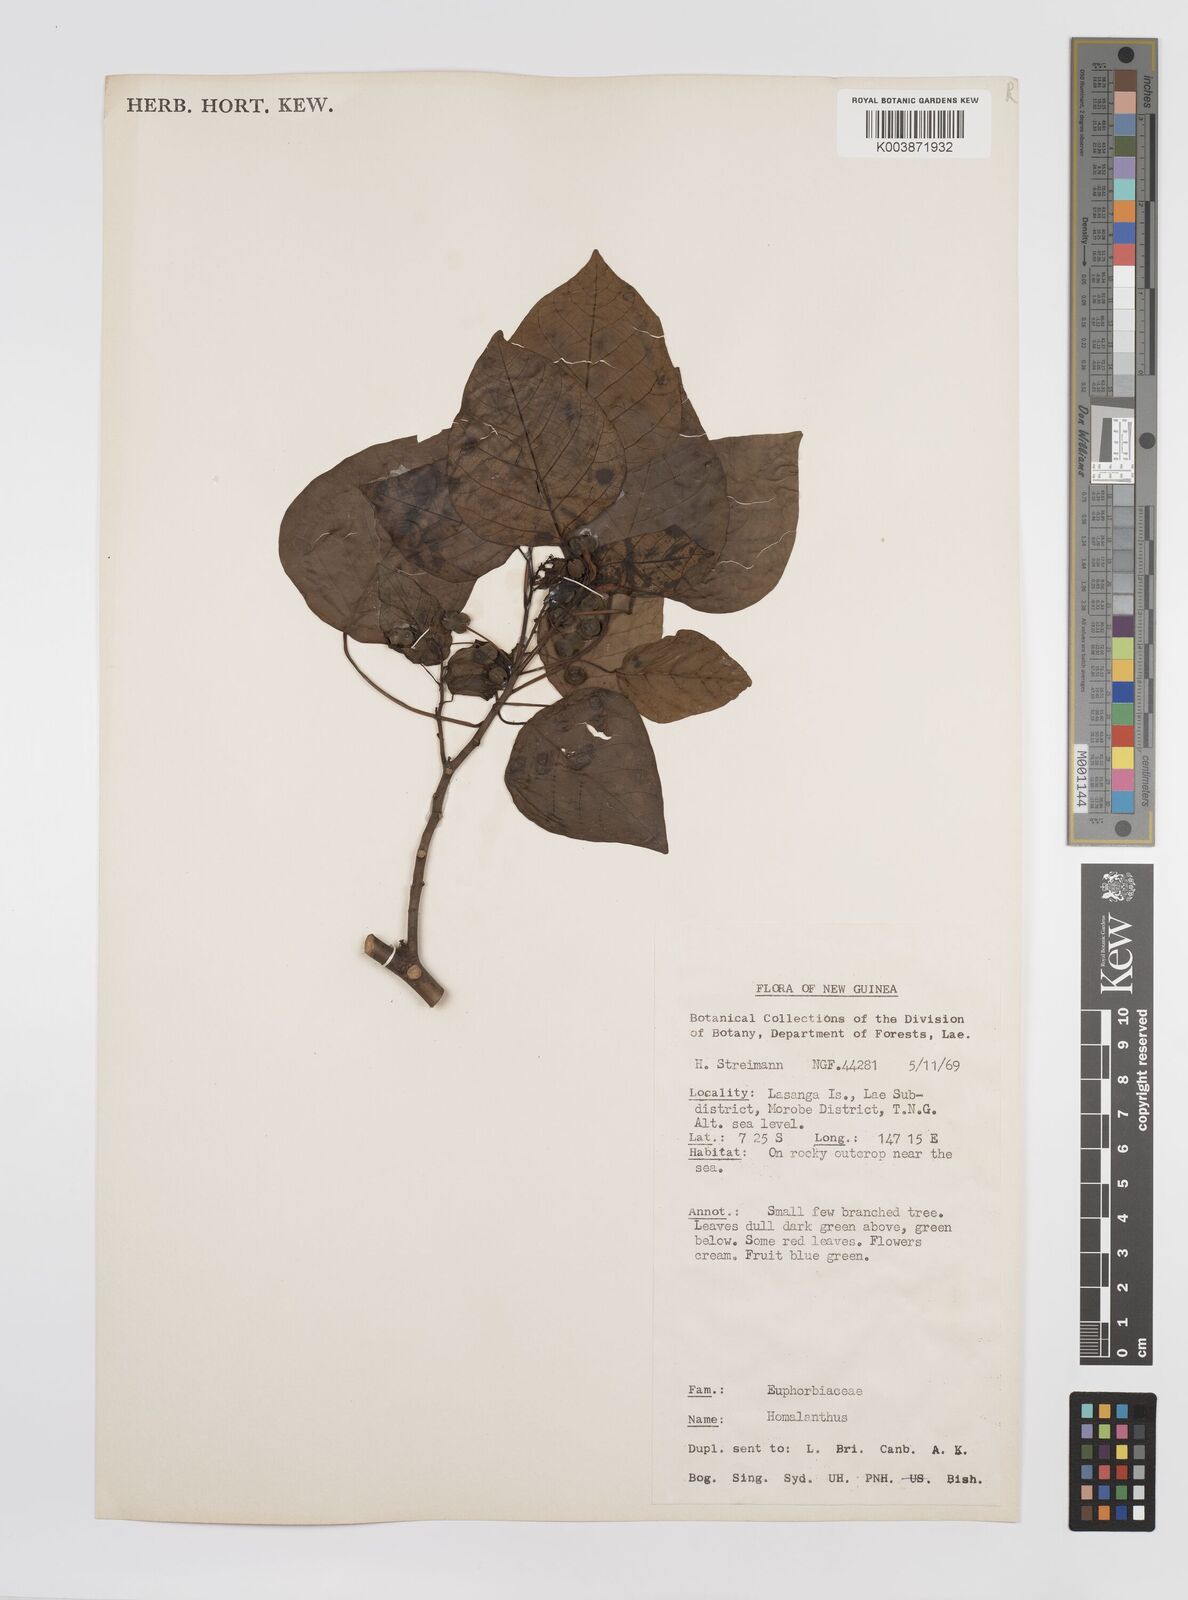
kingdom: Plantae
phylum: Tracheophyta
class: Magnoliopsida
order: Malpighiales
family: Euphorbiaceae
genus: Homalanthus
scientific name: Homalanthus novoguineensis
